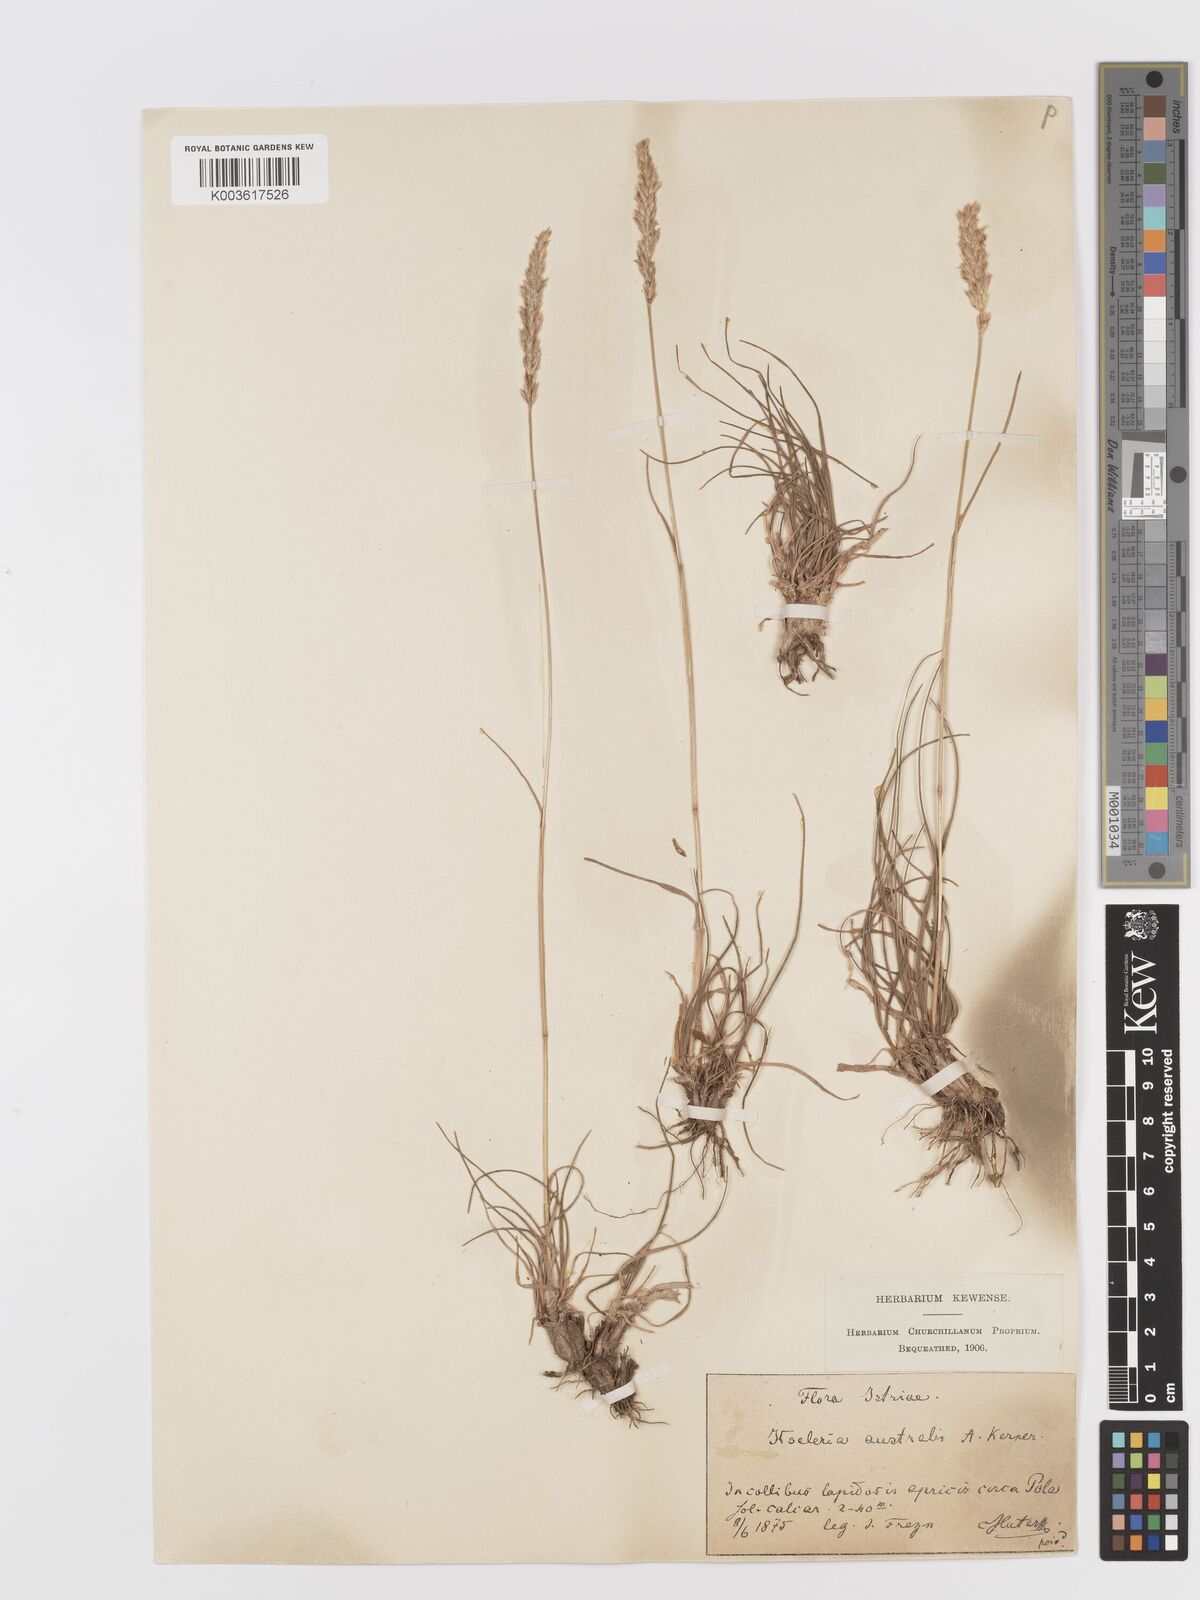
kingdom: Plantae
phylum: Tracheophyta
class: Liliopsida
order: Poales
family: Poaceae
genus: Koeleria
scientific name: Koeleria
